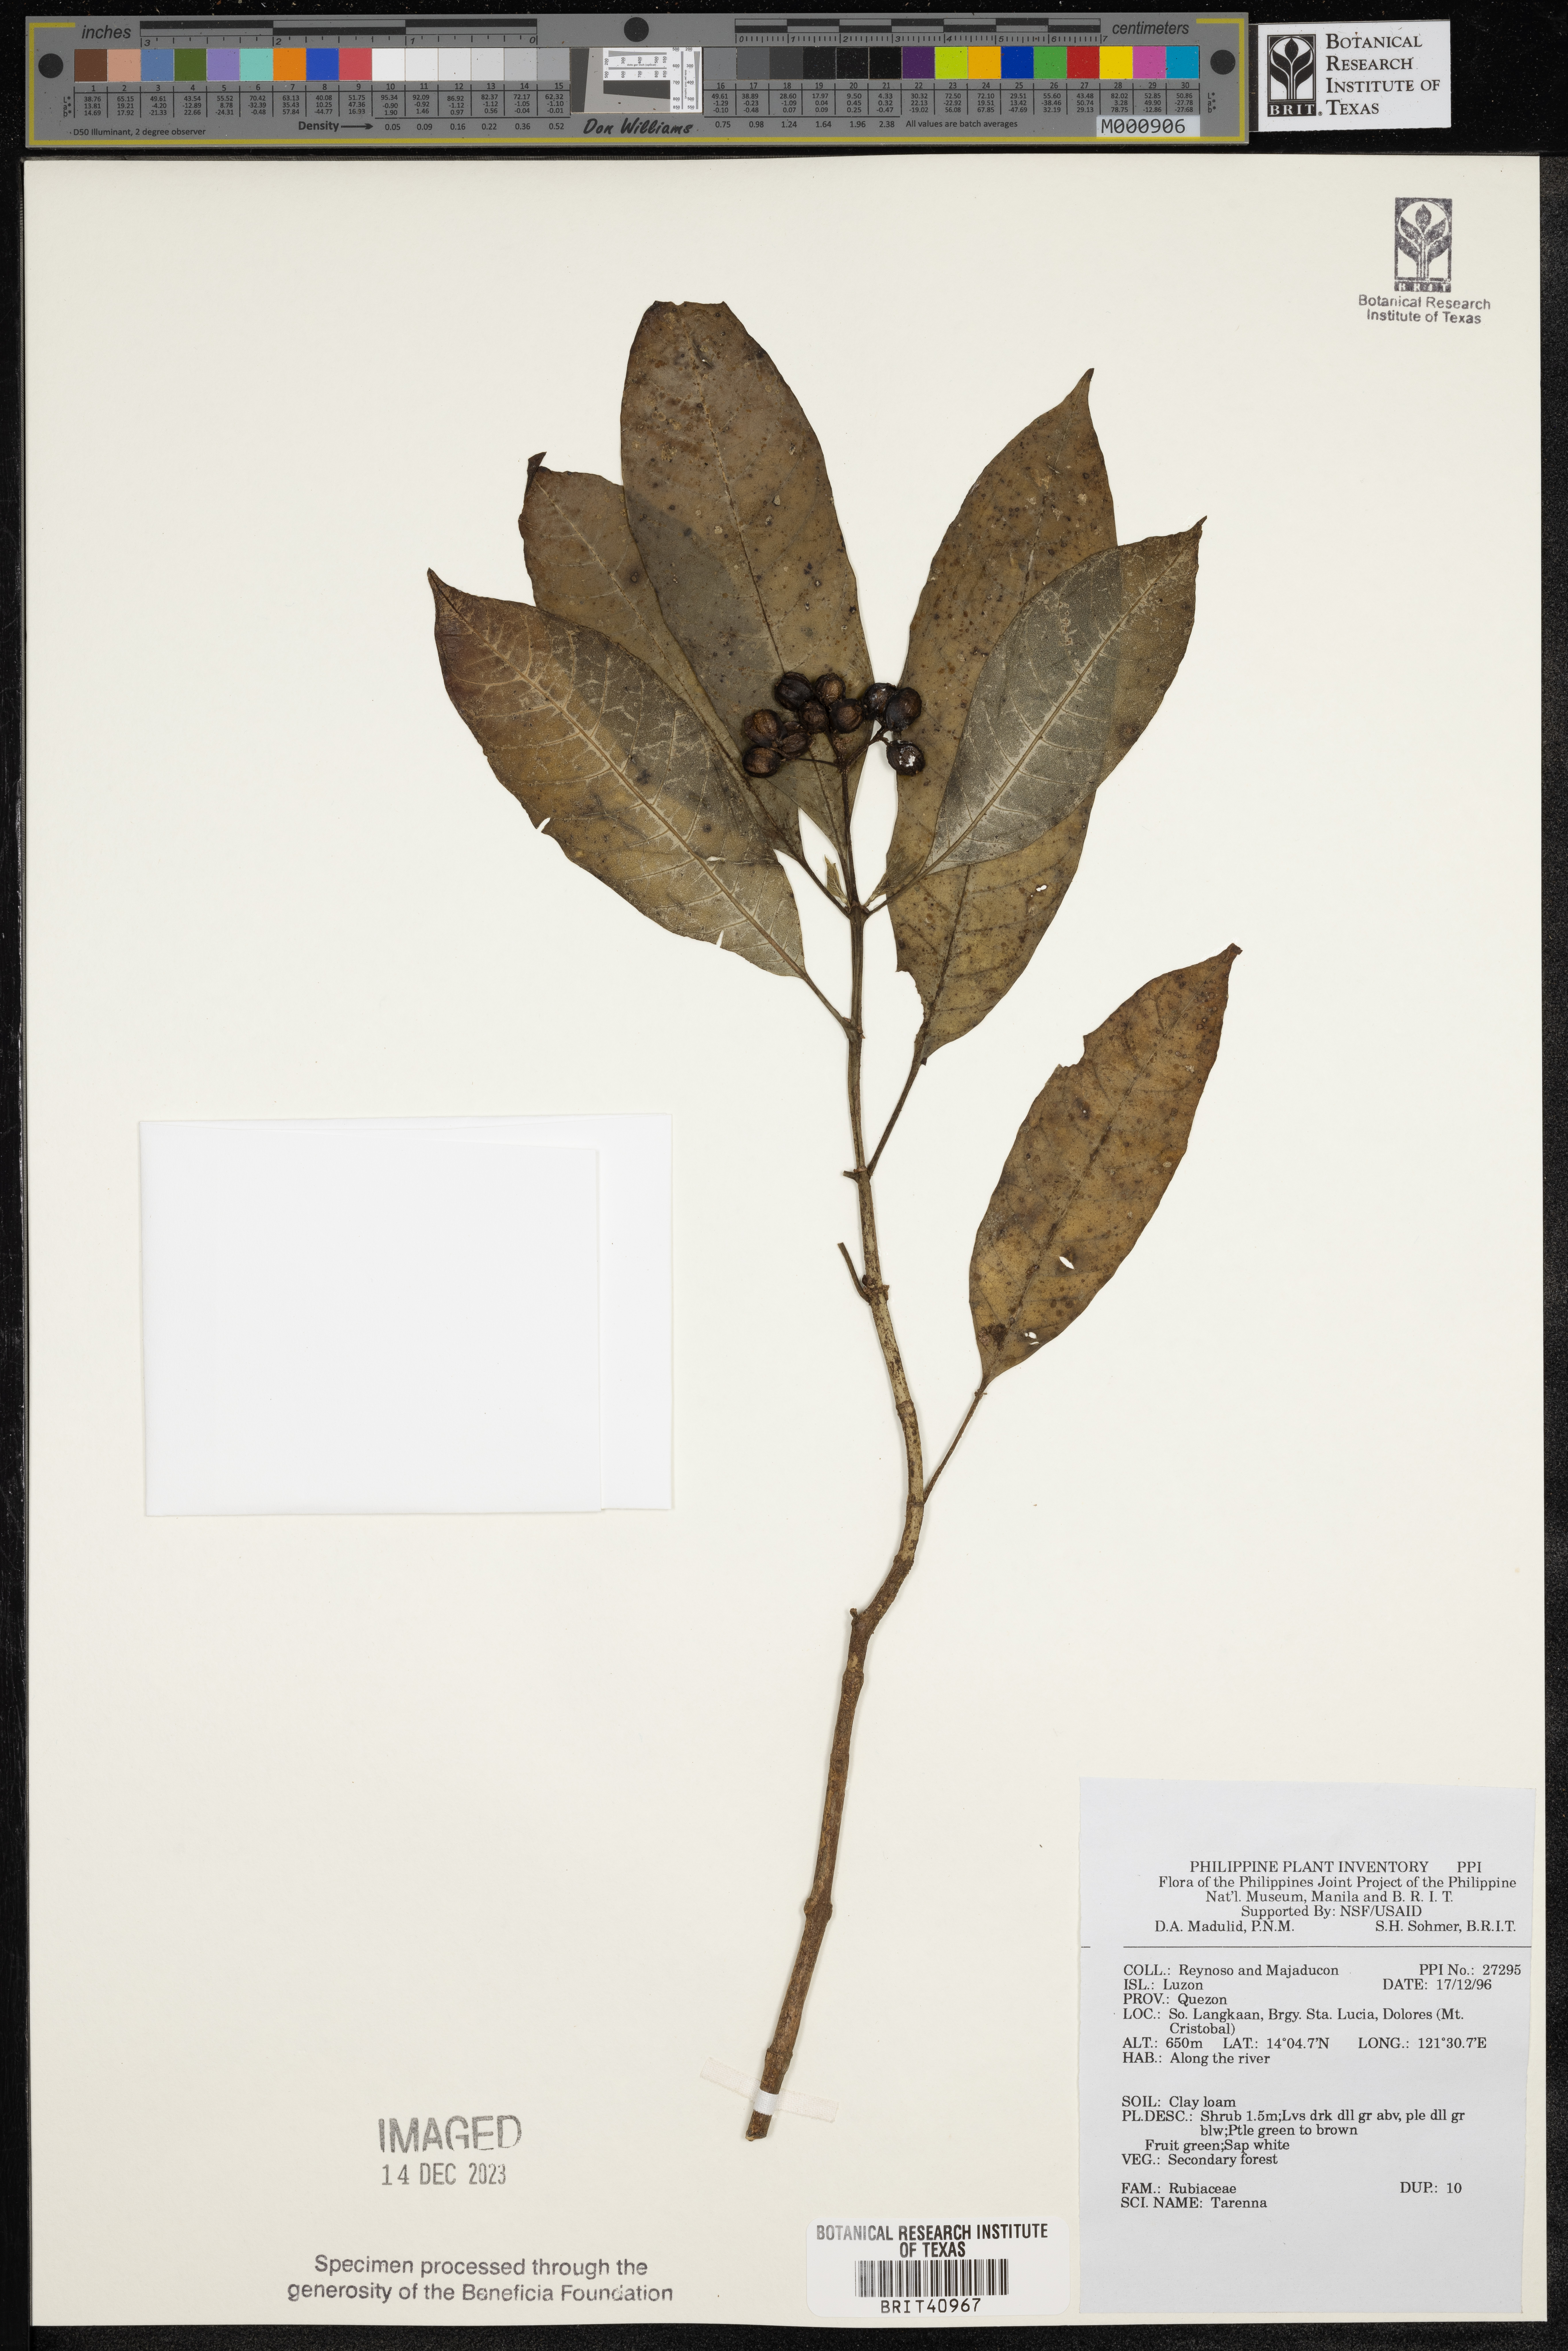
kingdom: Plantae
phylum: Tracheophyta
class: Magnoliopsida
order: Gentianales
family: Rubiaceae
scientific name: Rubiaceae
